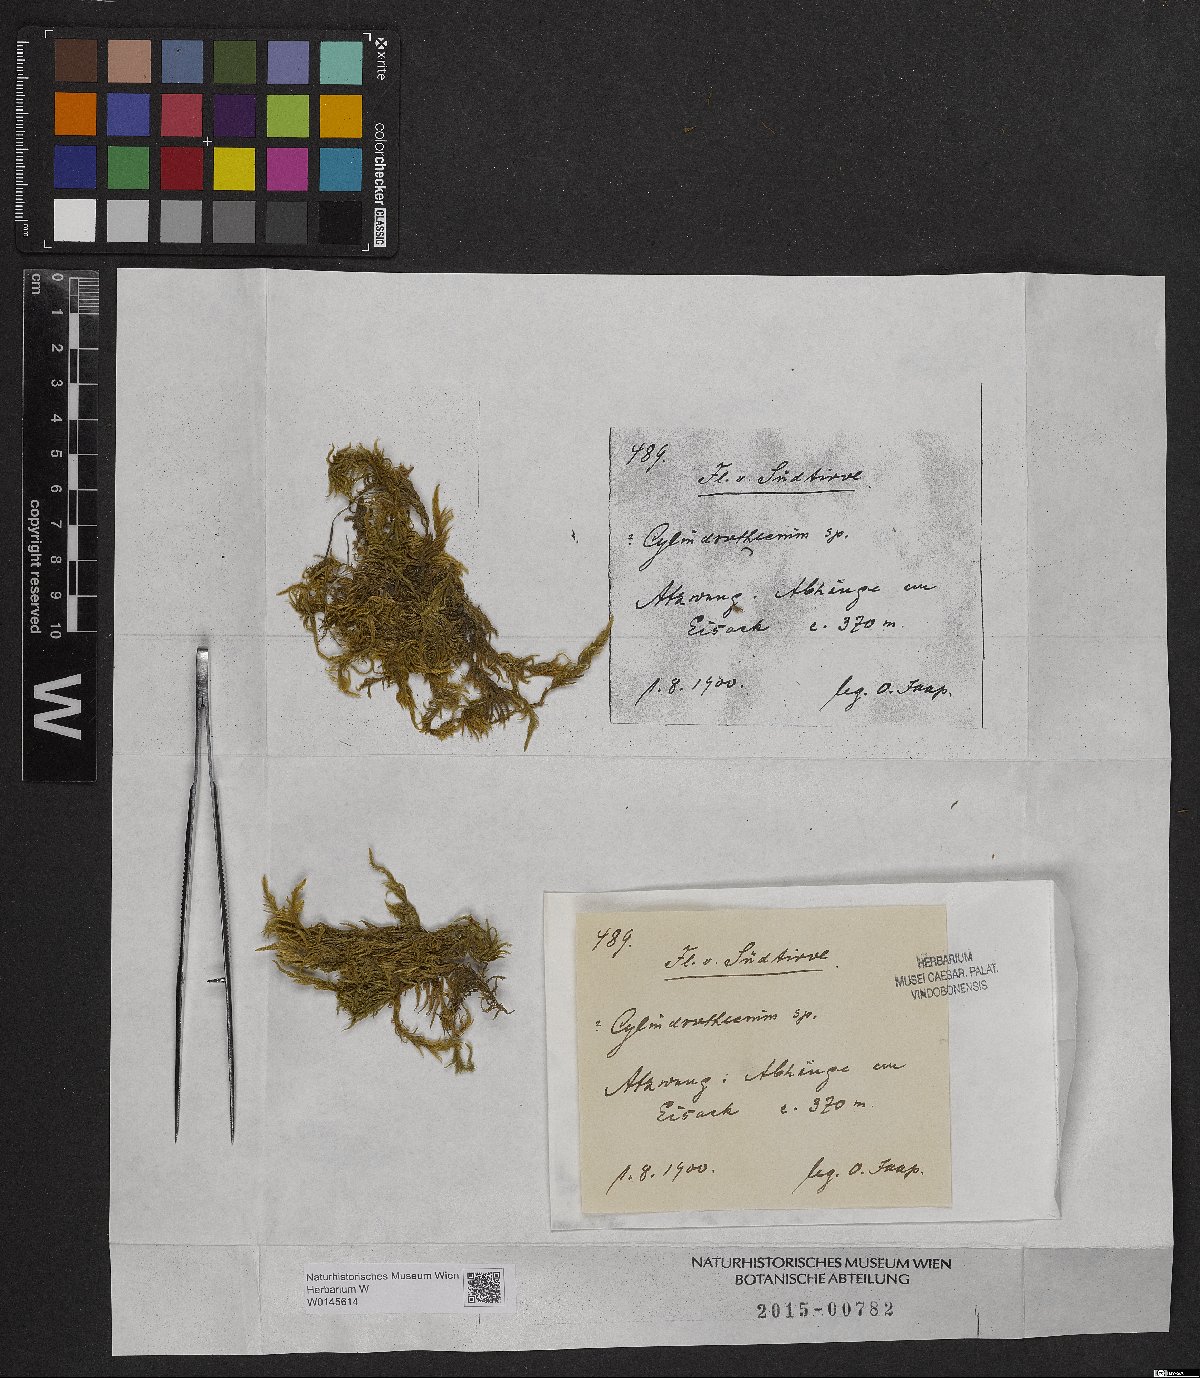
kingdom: Plantae
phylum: Bryophyta
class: Bryopsida
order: Hypnales
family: Entodontaceae
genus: Entodon
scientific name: Entodon
